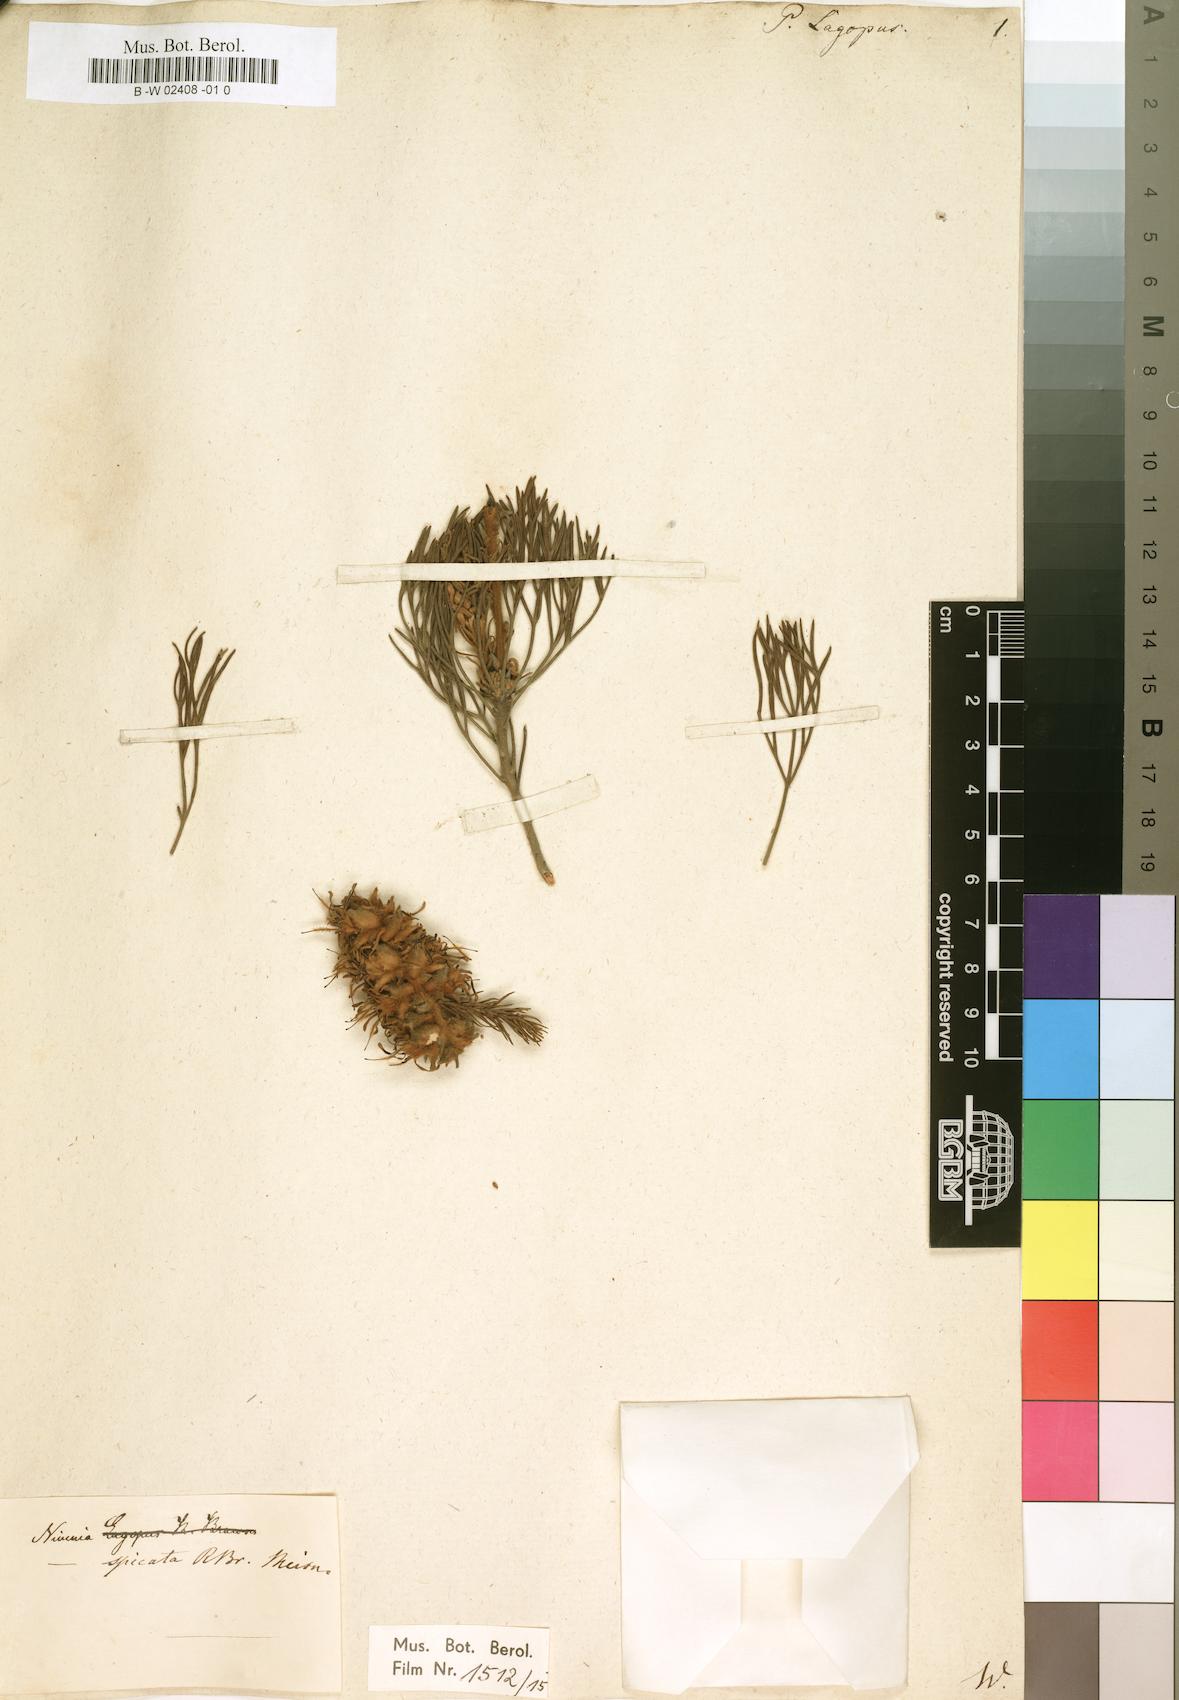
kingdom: Plantae
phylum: Tracheophyta
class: Magnoliopsida
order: Proteales
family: Proteaceae
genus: Paranomus
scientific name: Paranomus
